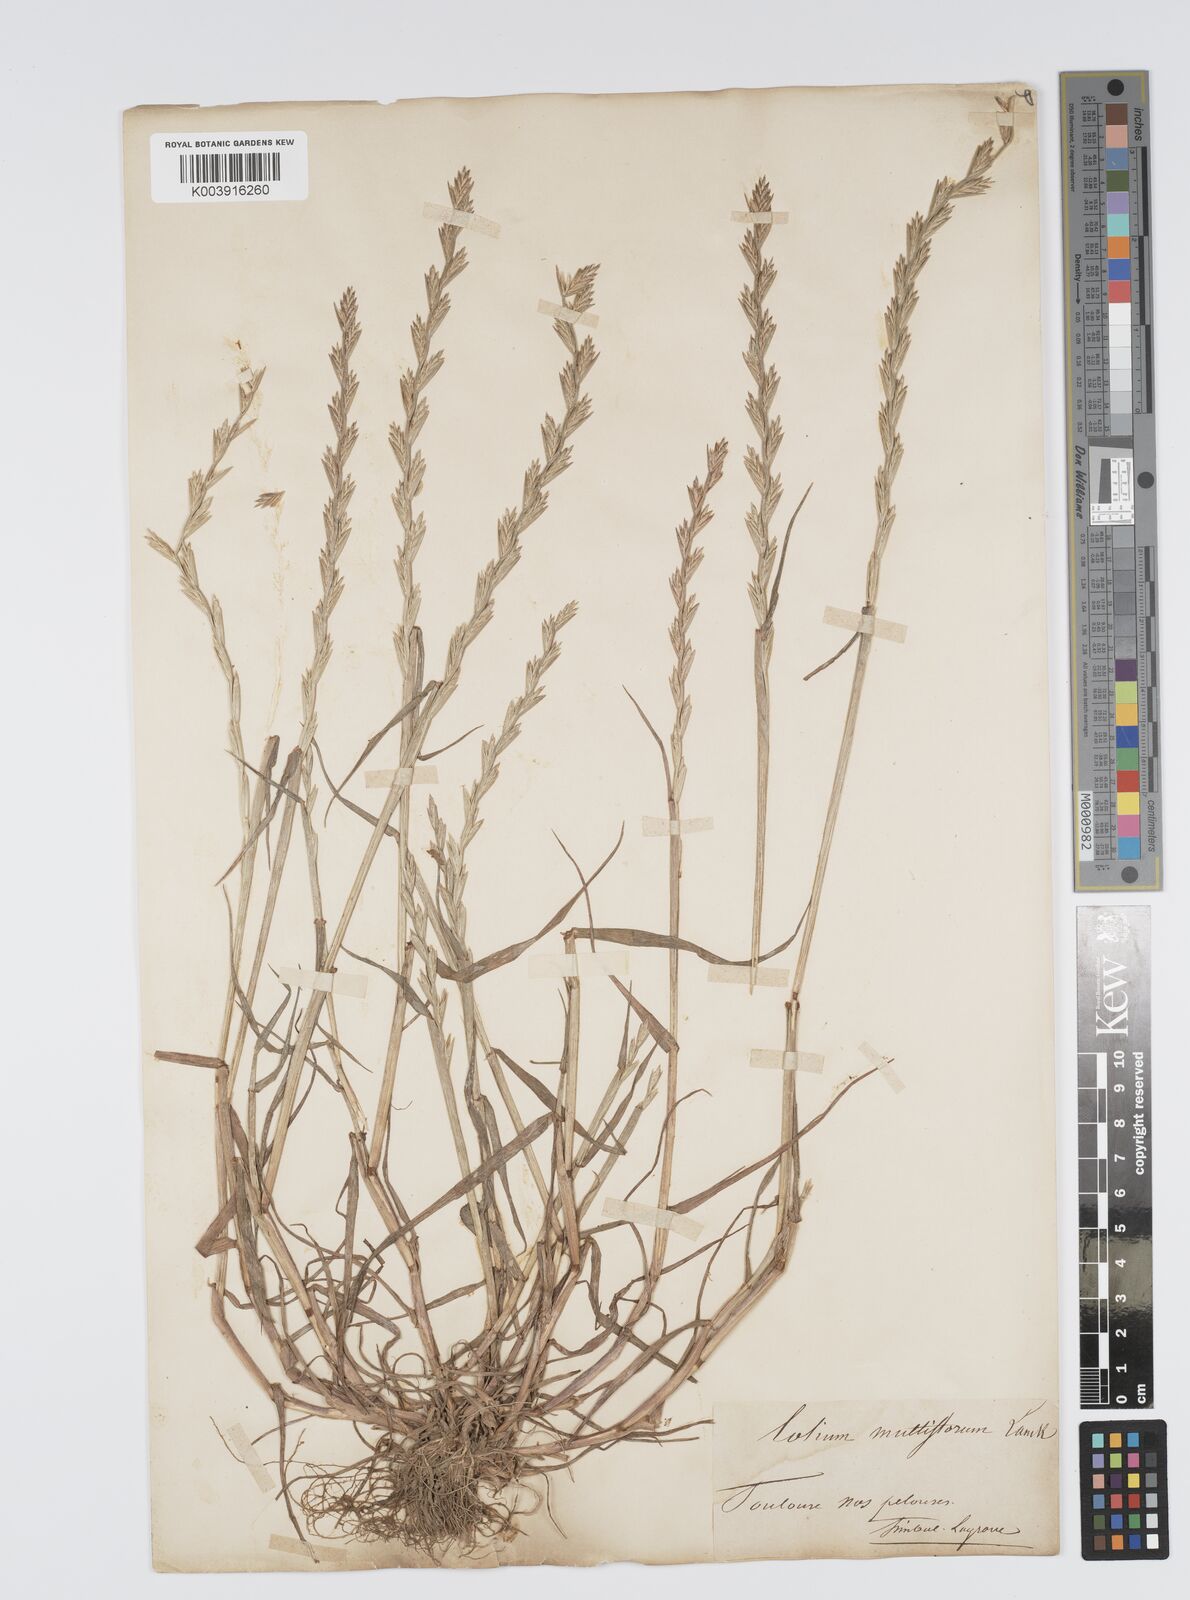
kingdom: Plantae
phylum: Tracheophyta
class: Liliopsida
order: Poales
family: Poaceae
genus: Lolium
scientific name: Lolium rigidum
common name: Wimmera ryegrass
